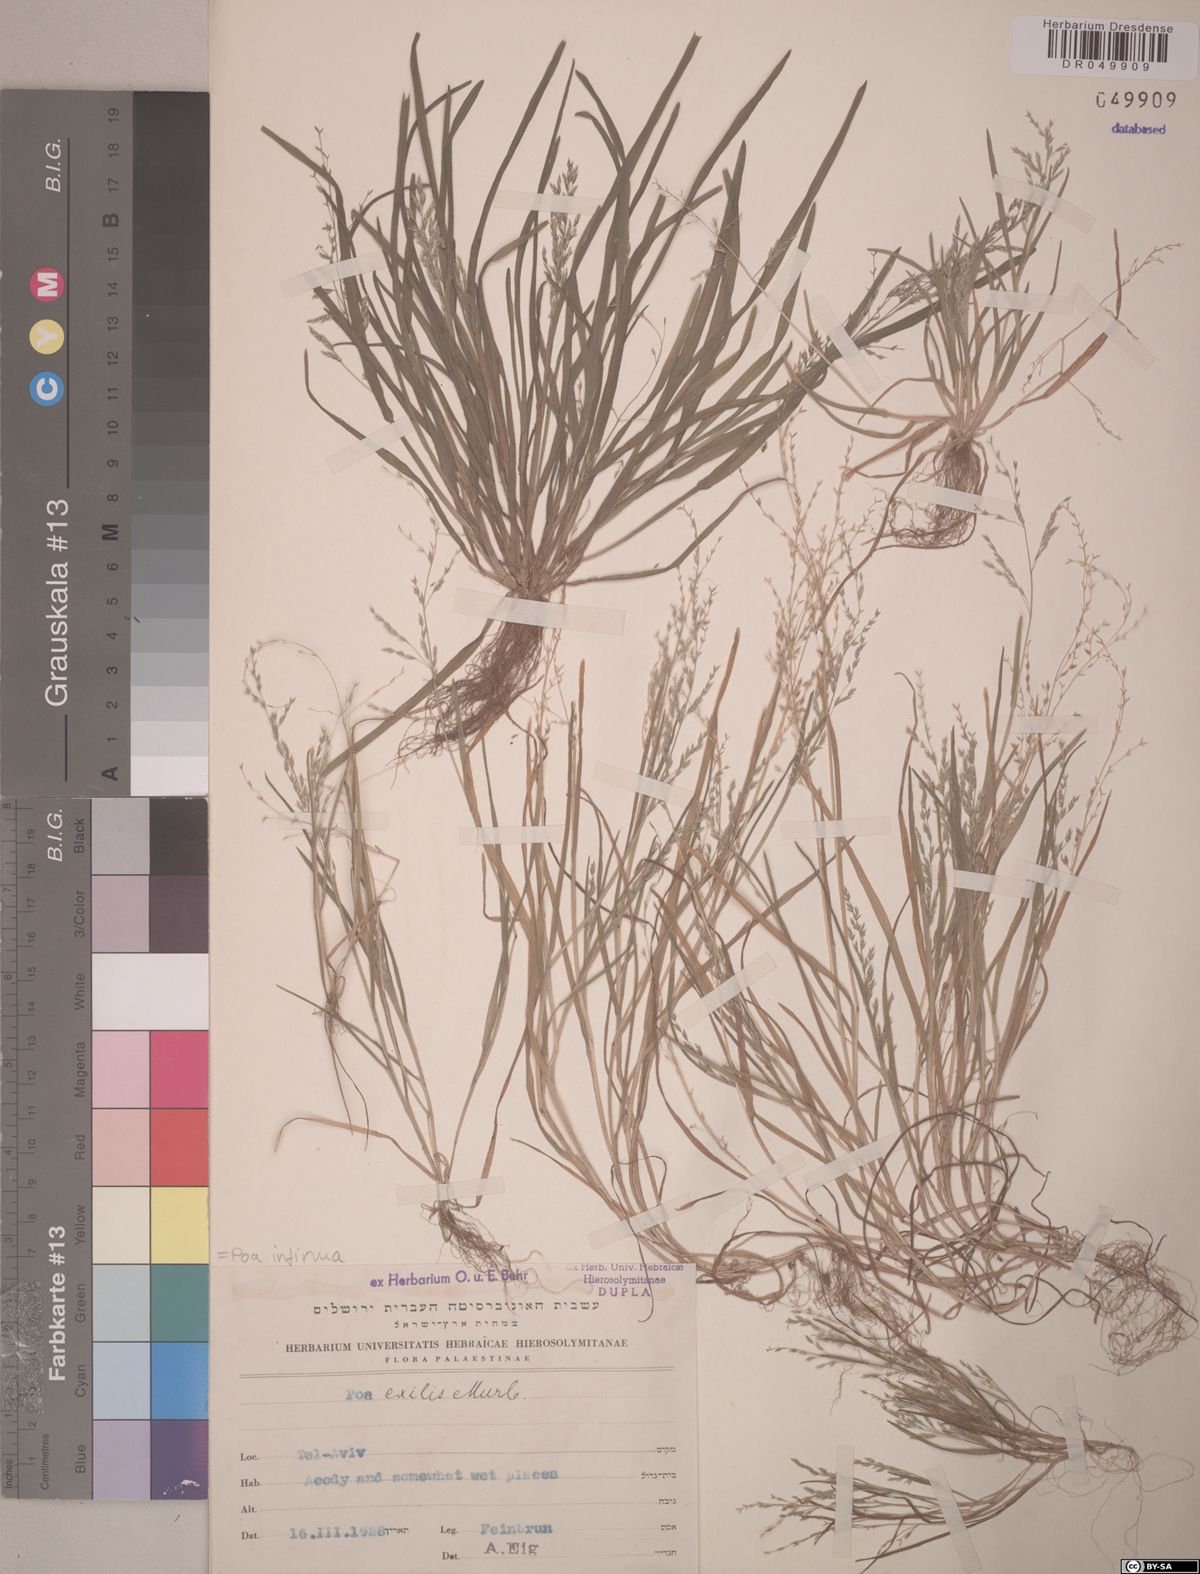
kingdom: Plantae
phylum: Tracheophyta
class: Liliopsida
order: Poales
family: Poaceae
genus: Poa
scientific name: Poa infirma
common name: Weak bluegrass
